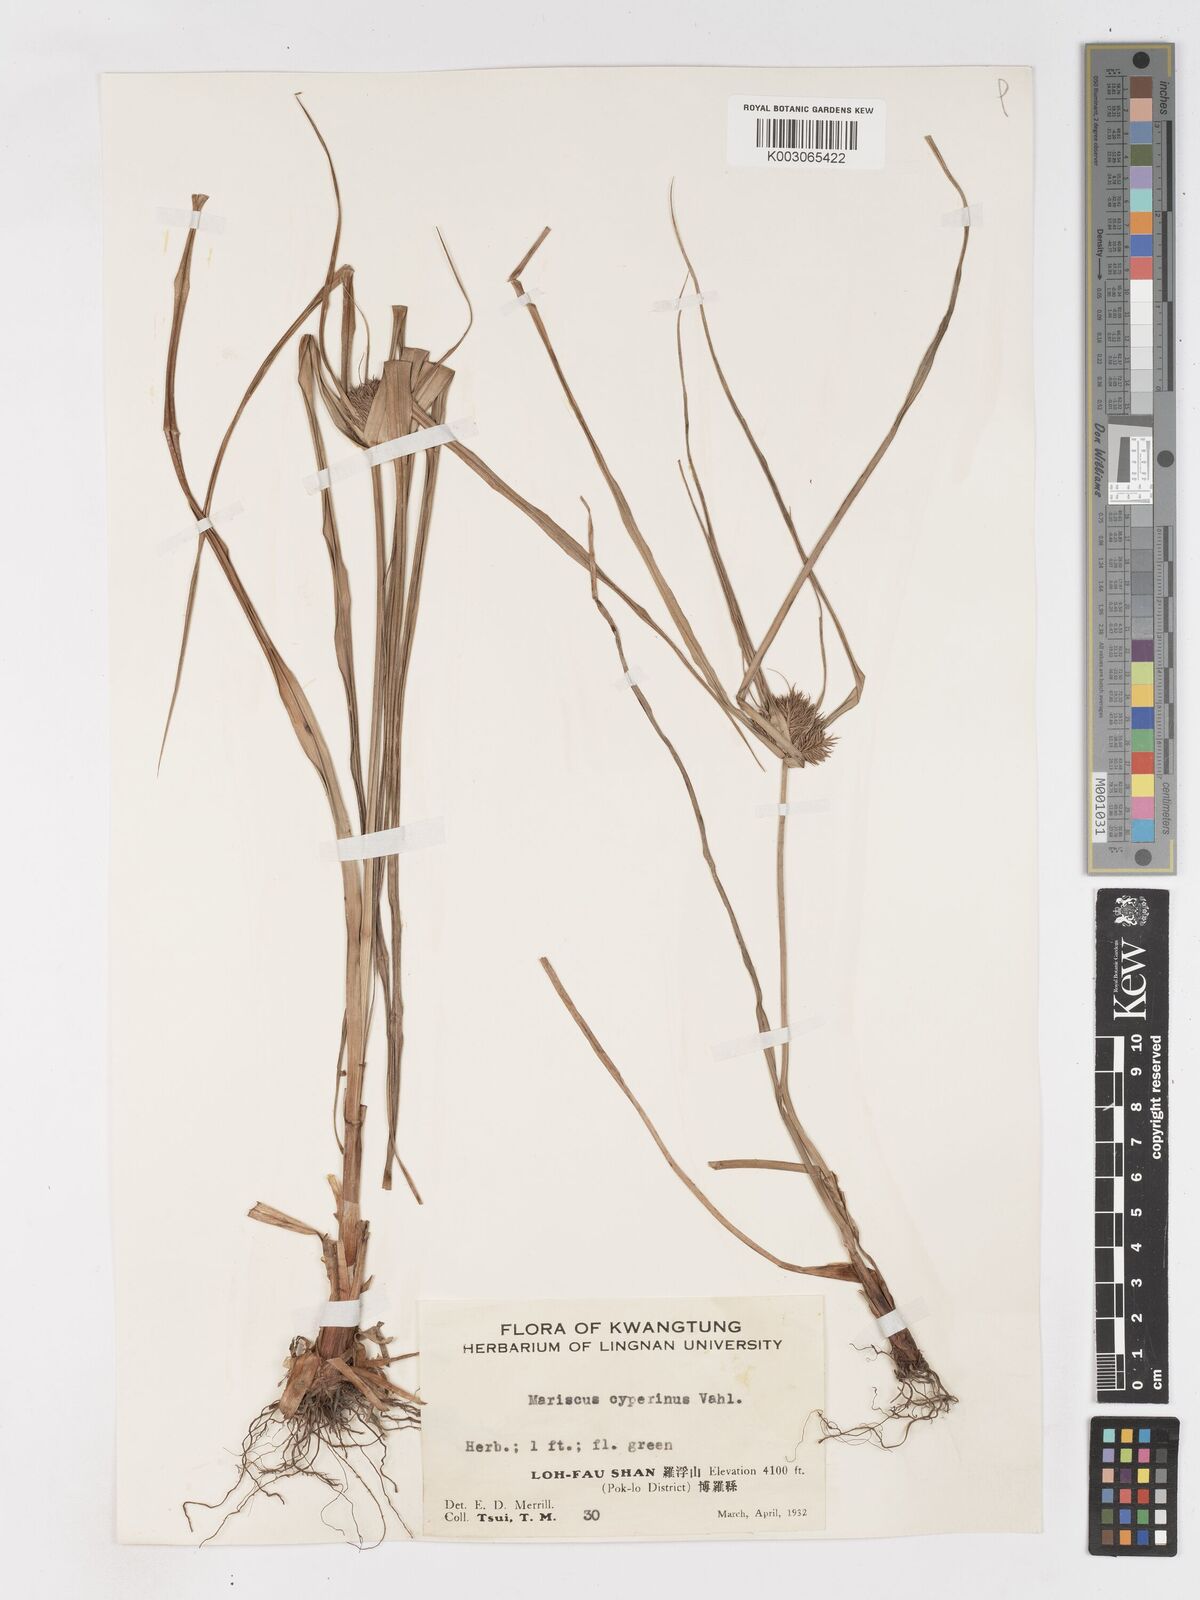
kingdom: Plantae
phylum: Tracheophyta
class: Liliopsida
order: Poales
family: Cyperaceae
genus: Cyperus
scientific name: Cyperus cyperinus
